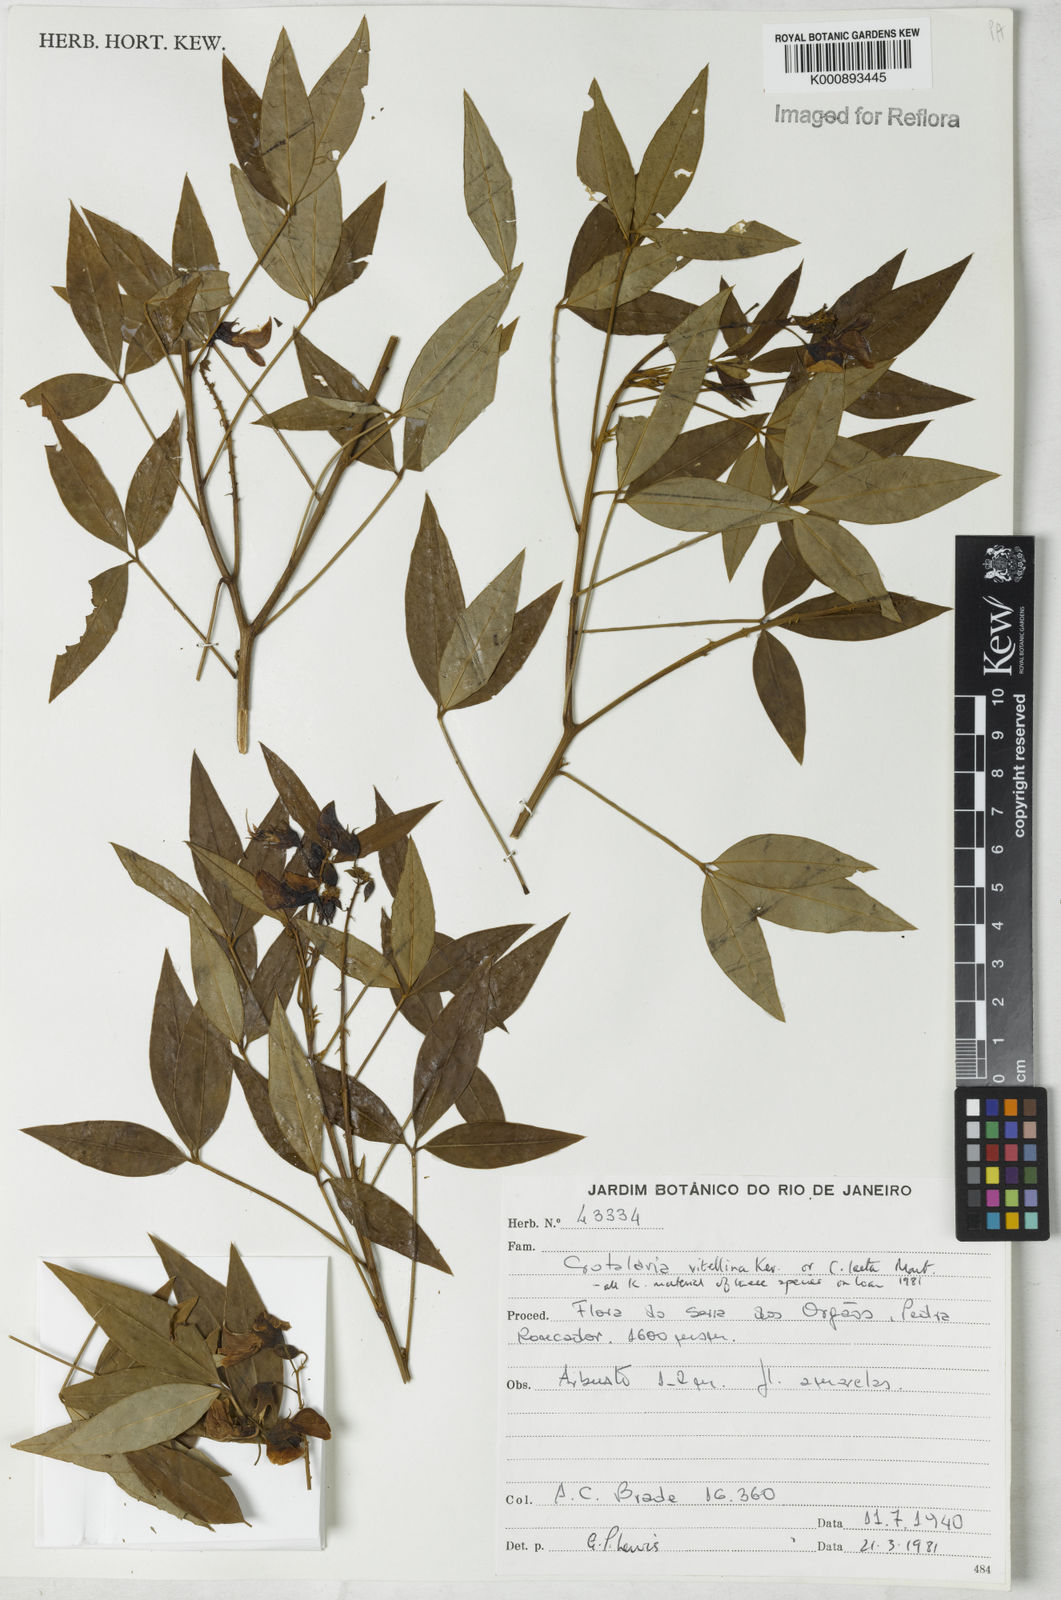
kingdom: Plantae
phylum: Tracheophyta
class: Magnoliopsida
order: Fabales
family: Fabaceae
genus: Crotalaria
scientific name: Crotalaria vitellina
